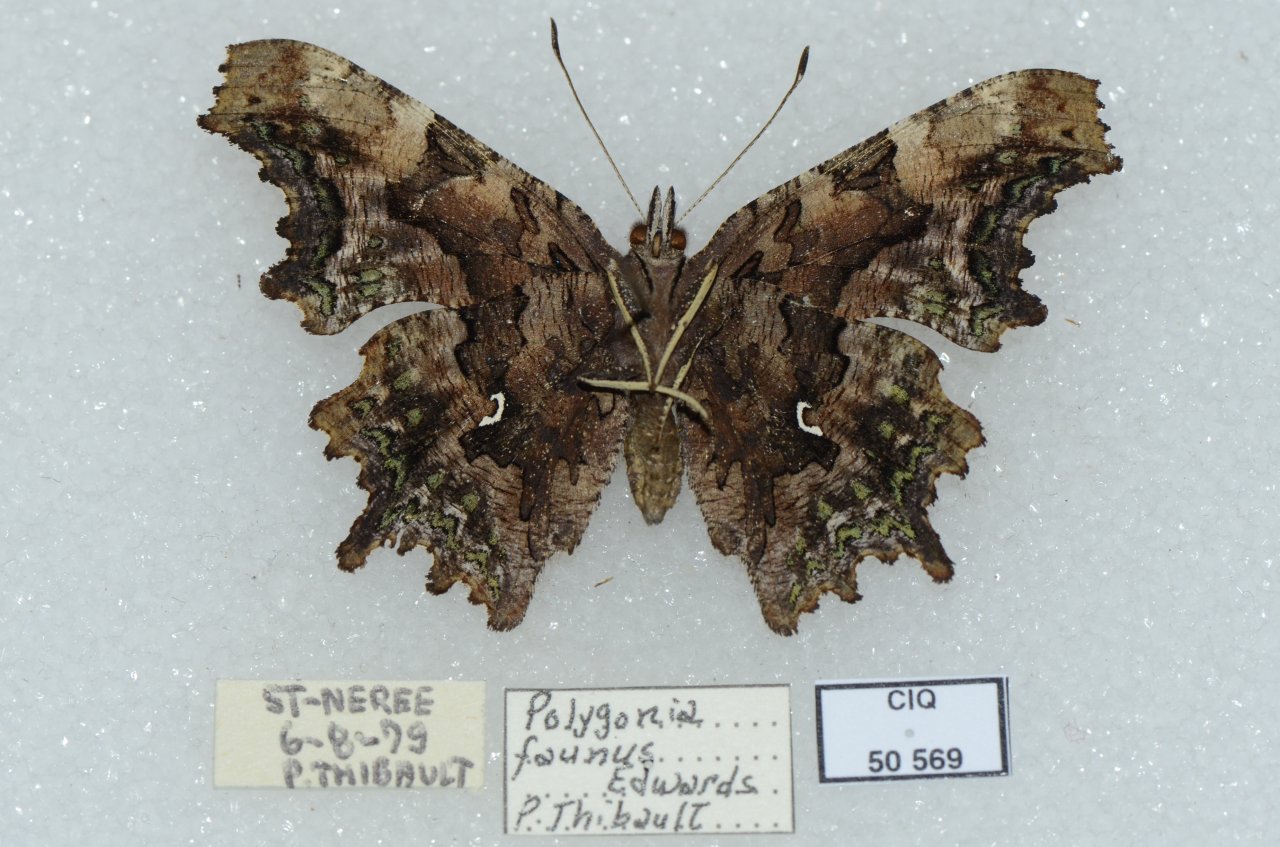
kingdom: Animalia
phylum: Arthropoda
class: Insecta
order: Lepidoptera
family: Nymphalidae
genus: Polygonia
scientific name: Polygonia faunus
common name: Green Comma
